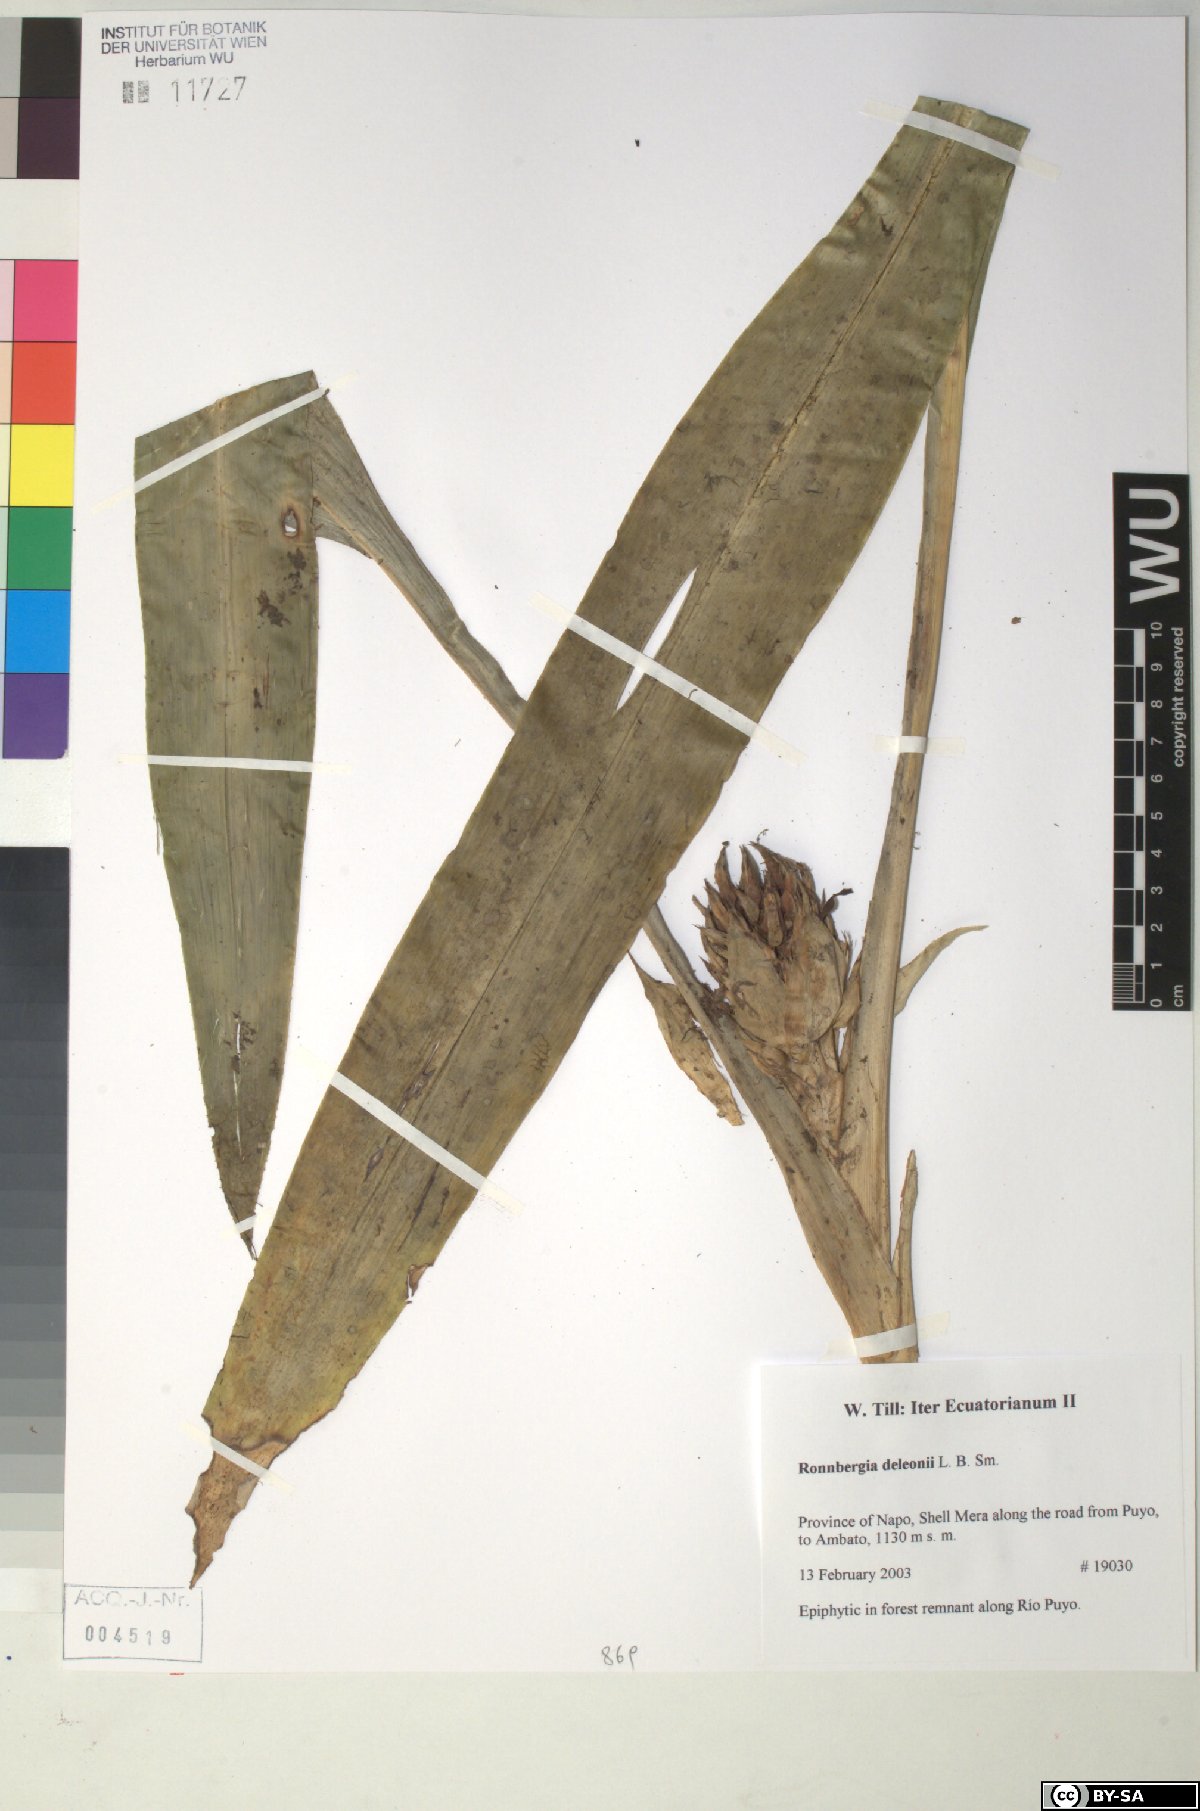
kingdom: Plantae
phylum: Tracheophyta
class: Liliopsida
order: Poales
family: Bromeliaceae
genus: Ronnbergia
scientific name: Ronnbergia deleonii
